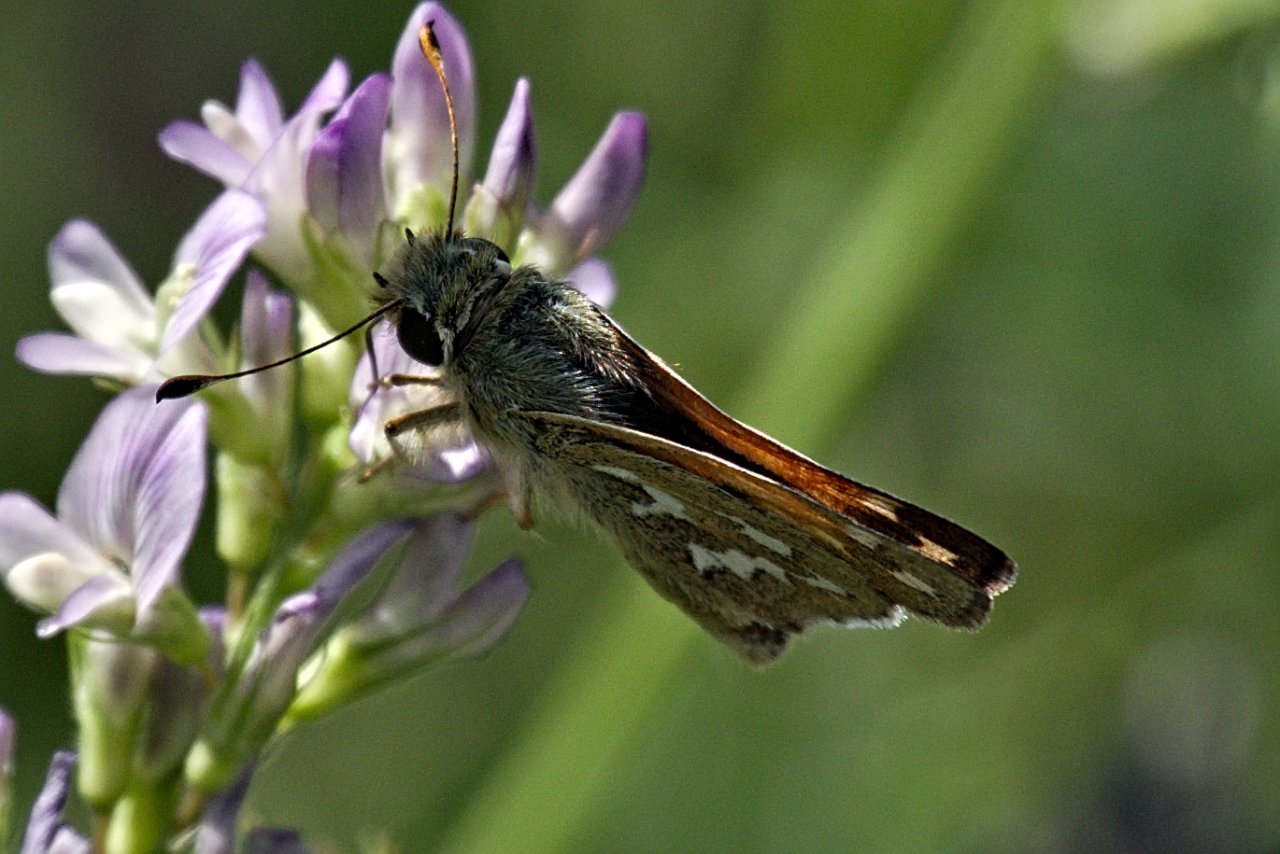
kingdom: Animalia
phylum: Arthropoda
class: Insecta
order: Lepidoptera
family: Hesperiidae
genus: Hesperia
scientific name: Hesperia comma
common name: Western Branded Skipper
